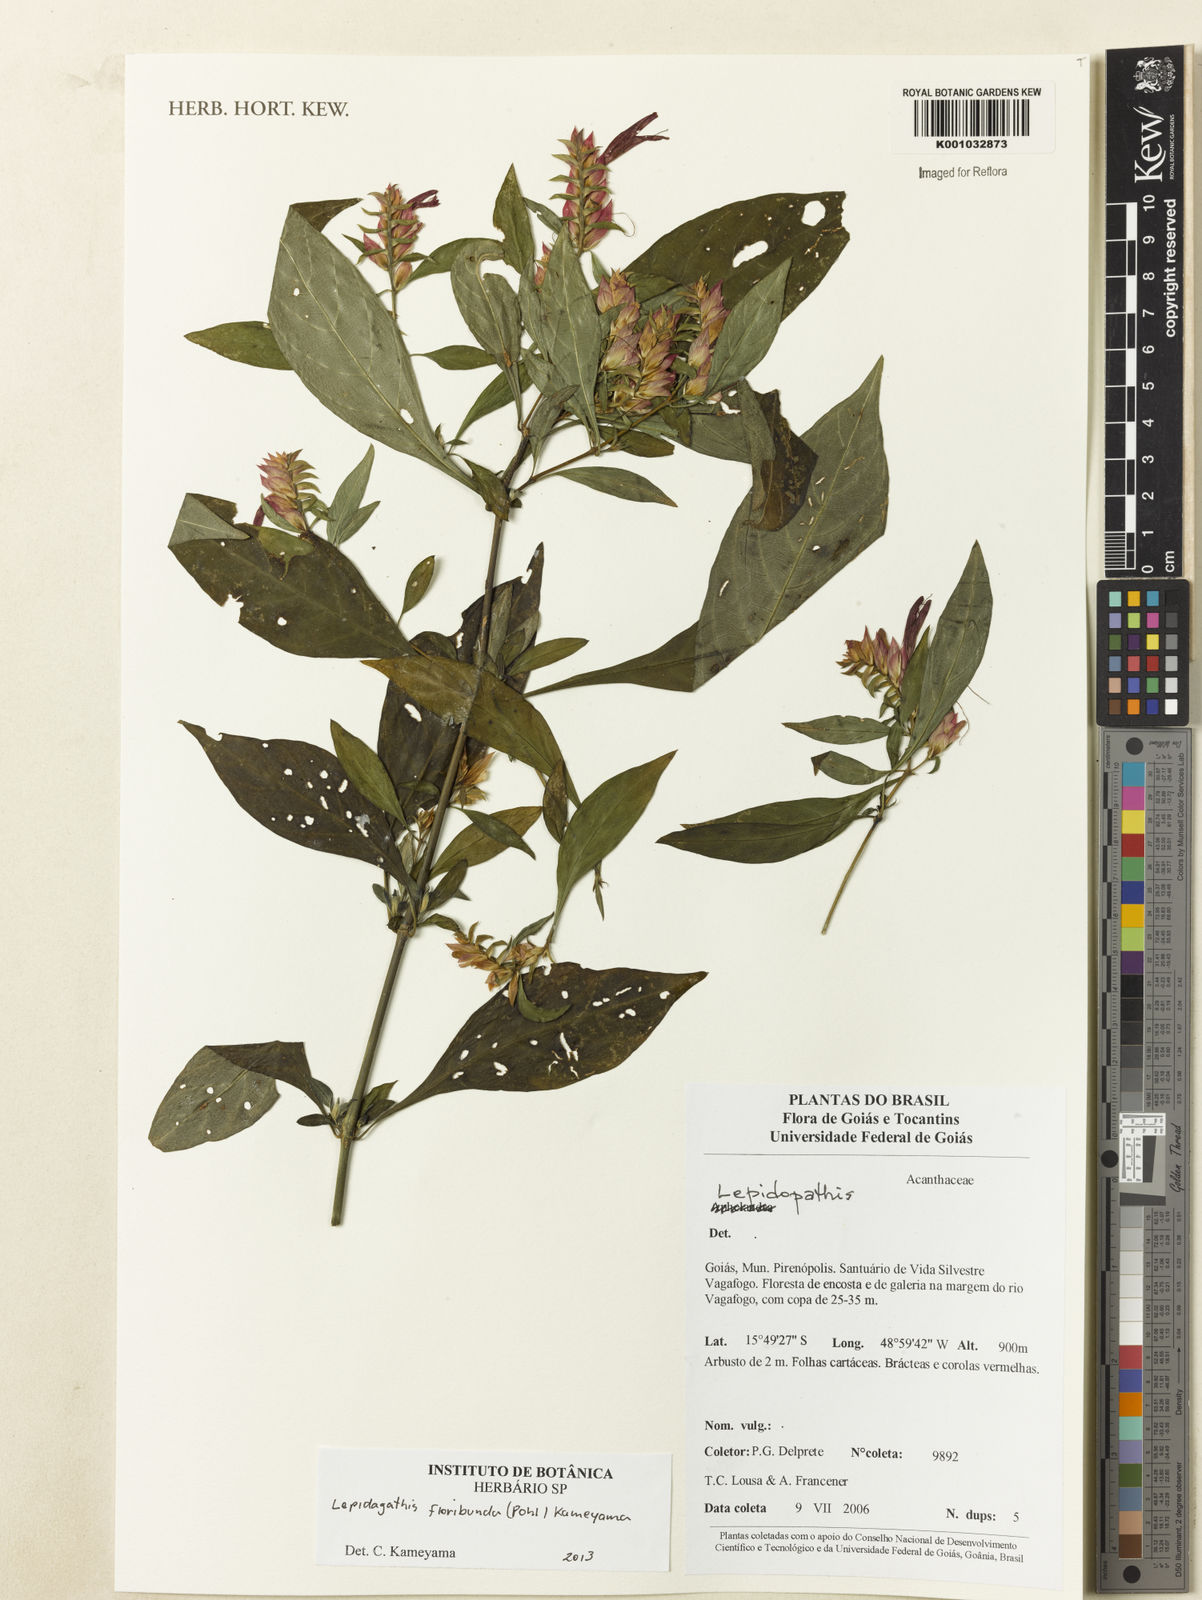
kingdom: Plantae
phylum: Tracheophyta
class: Magnoliopsida
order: Lamiales
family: Acanthaceae
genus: Lepidagathis
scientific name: Lepidagathis floribunda
